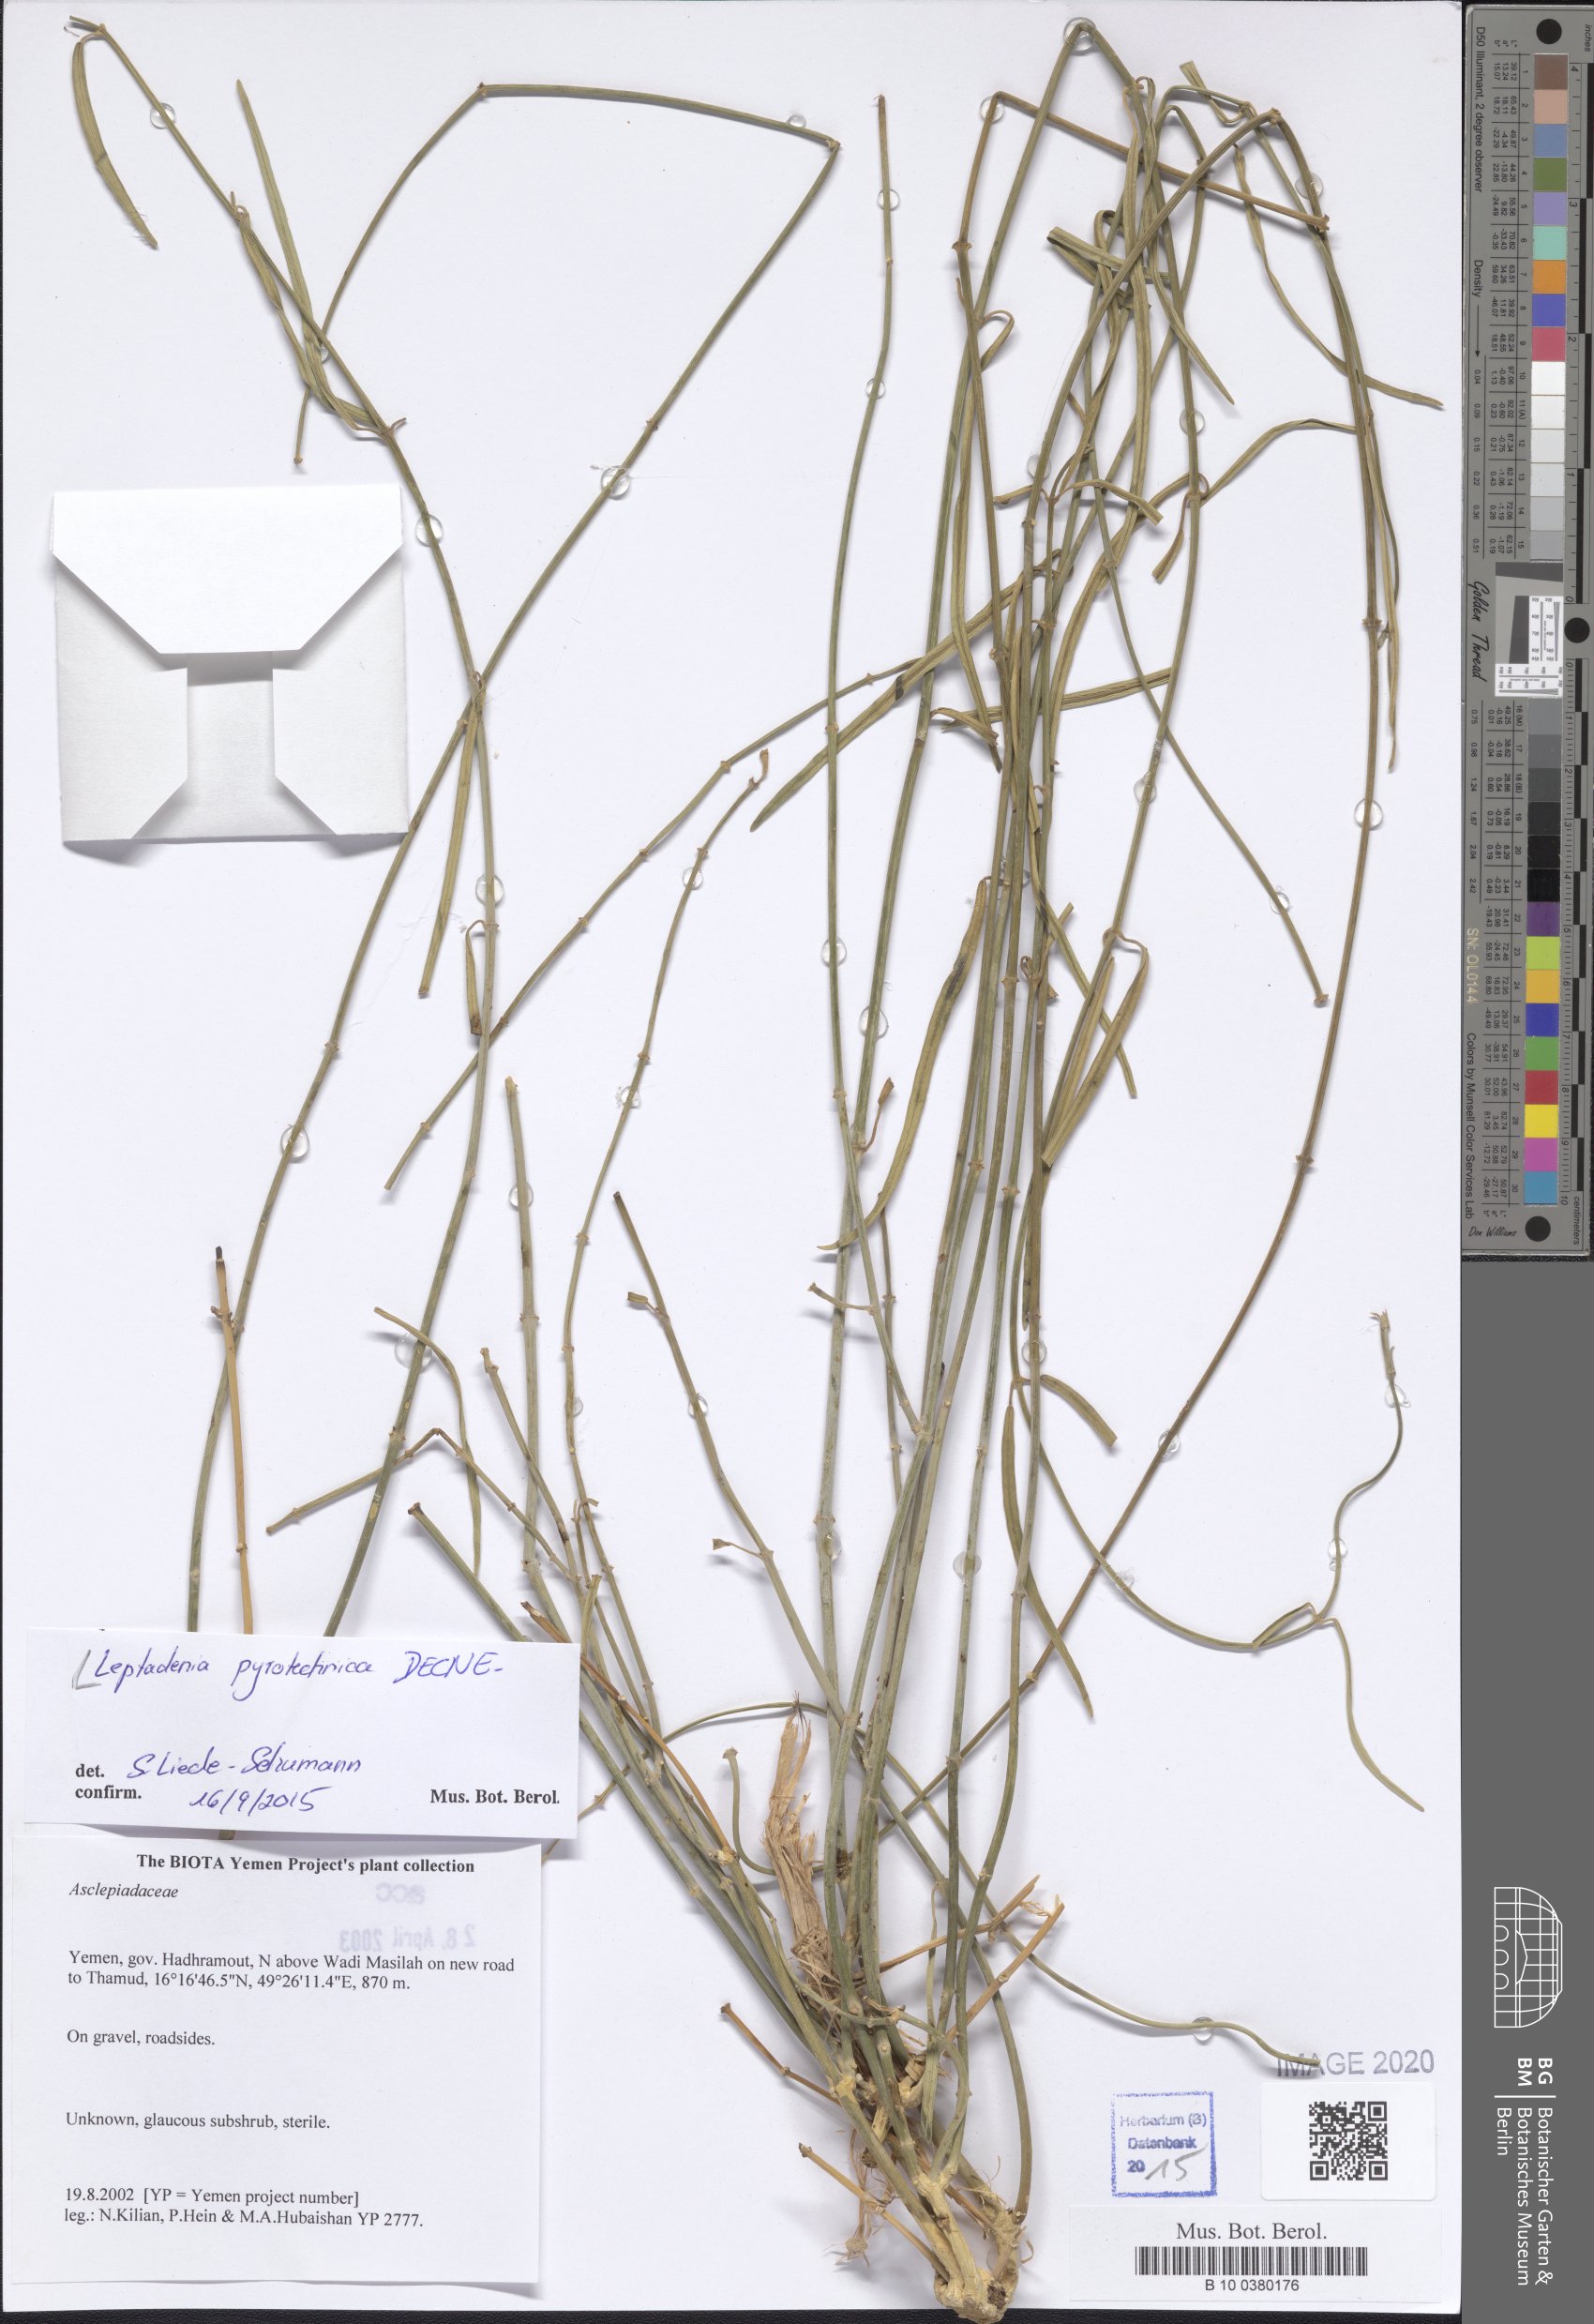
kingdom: Plantae
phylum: Tracheophyta
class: Magnoliopsida
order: Gentianales
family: Apocynaceae
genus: Leptadenia
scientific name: Leptadenia pyrotechnica
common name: Broom brush
